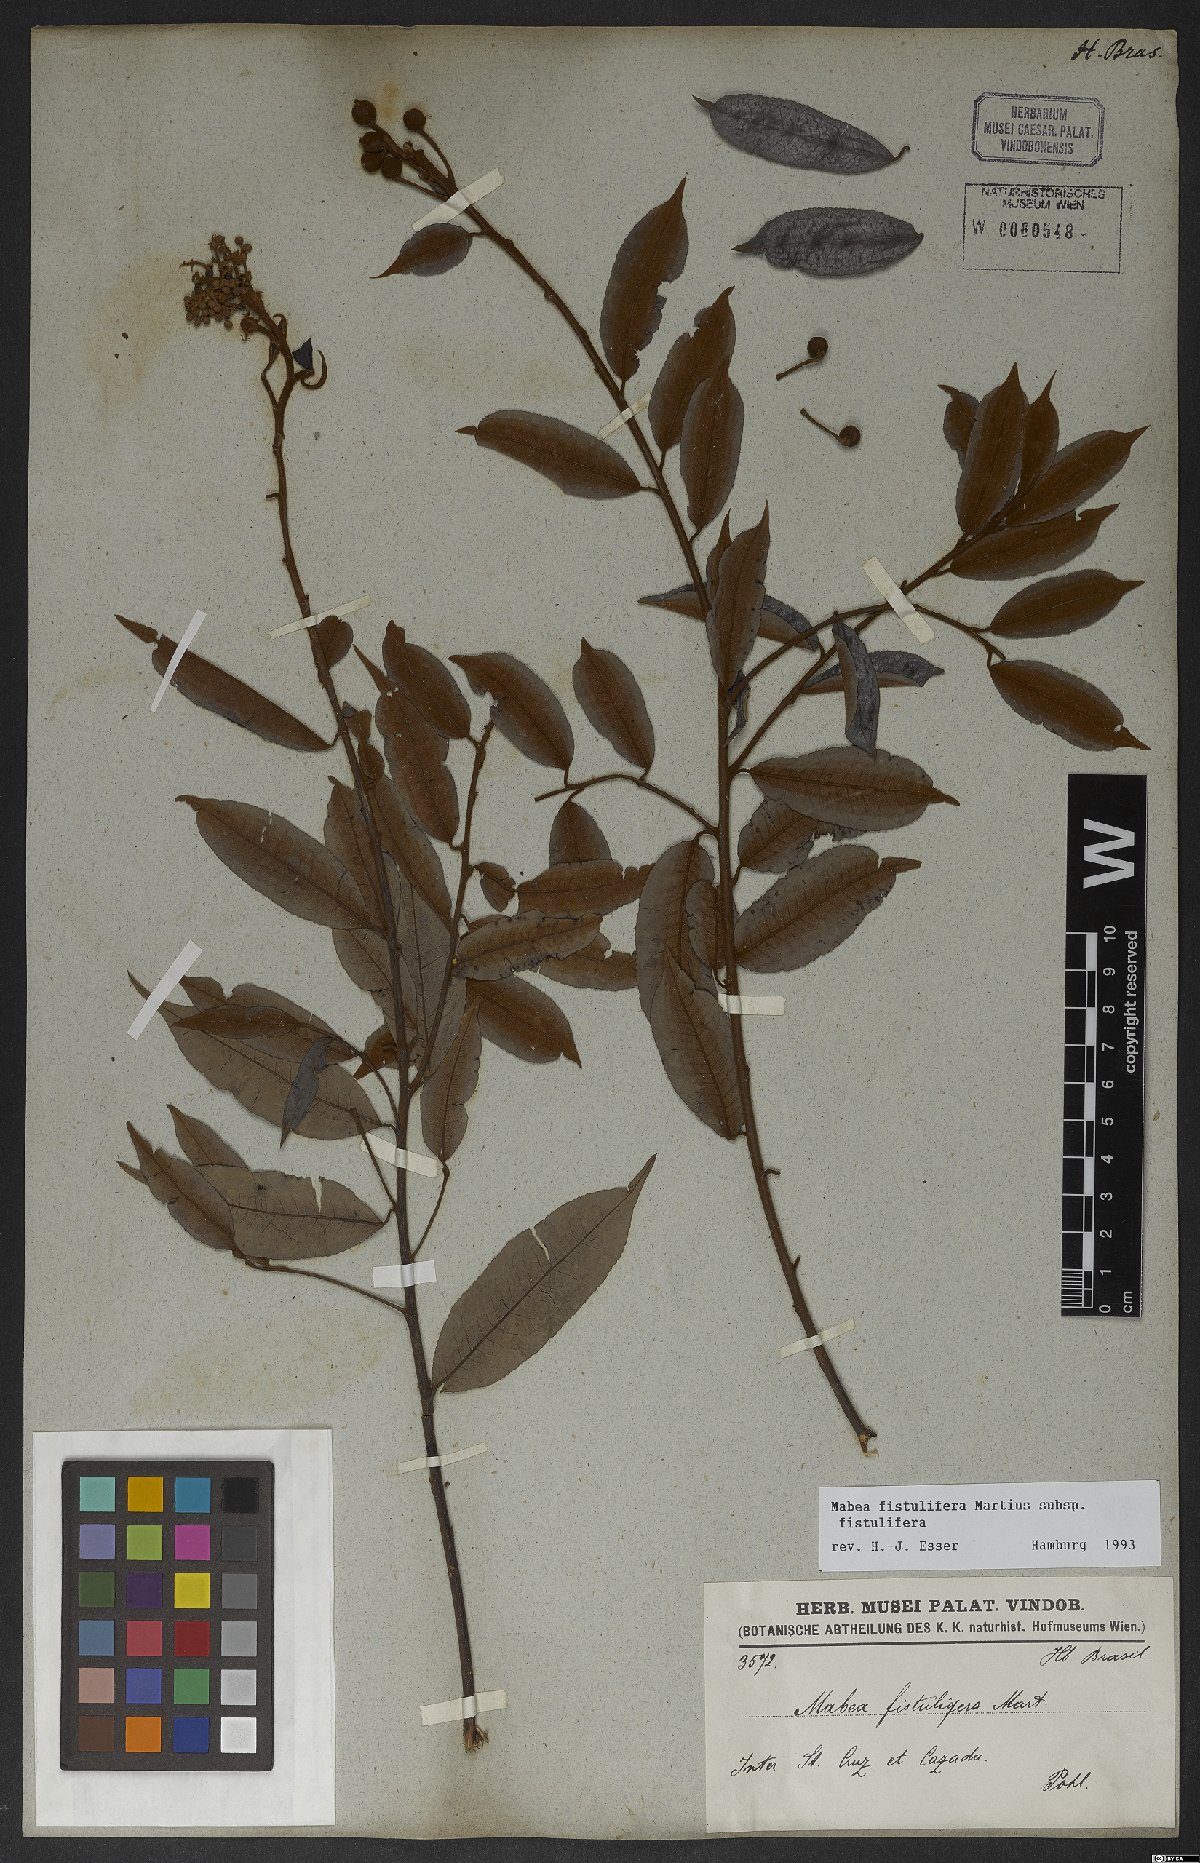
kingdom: Plantae
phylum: Tracheophyta
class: Magnoliopsida
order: Malpighiales
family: Euphorbiaceae
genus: Mabea
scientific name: Mabea fistulifera
